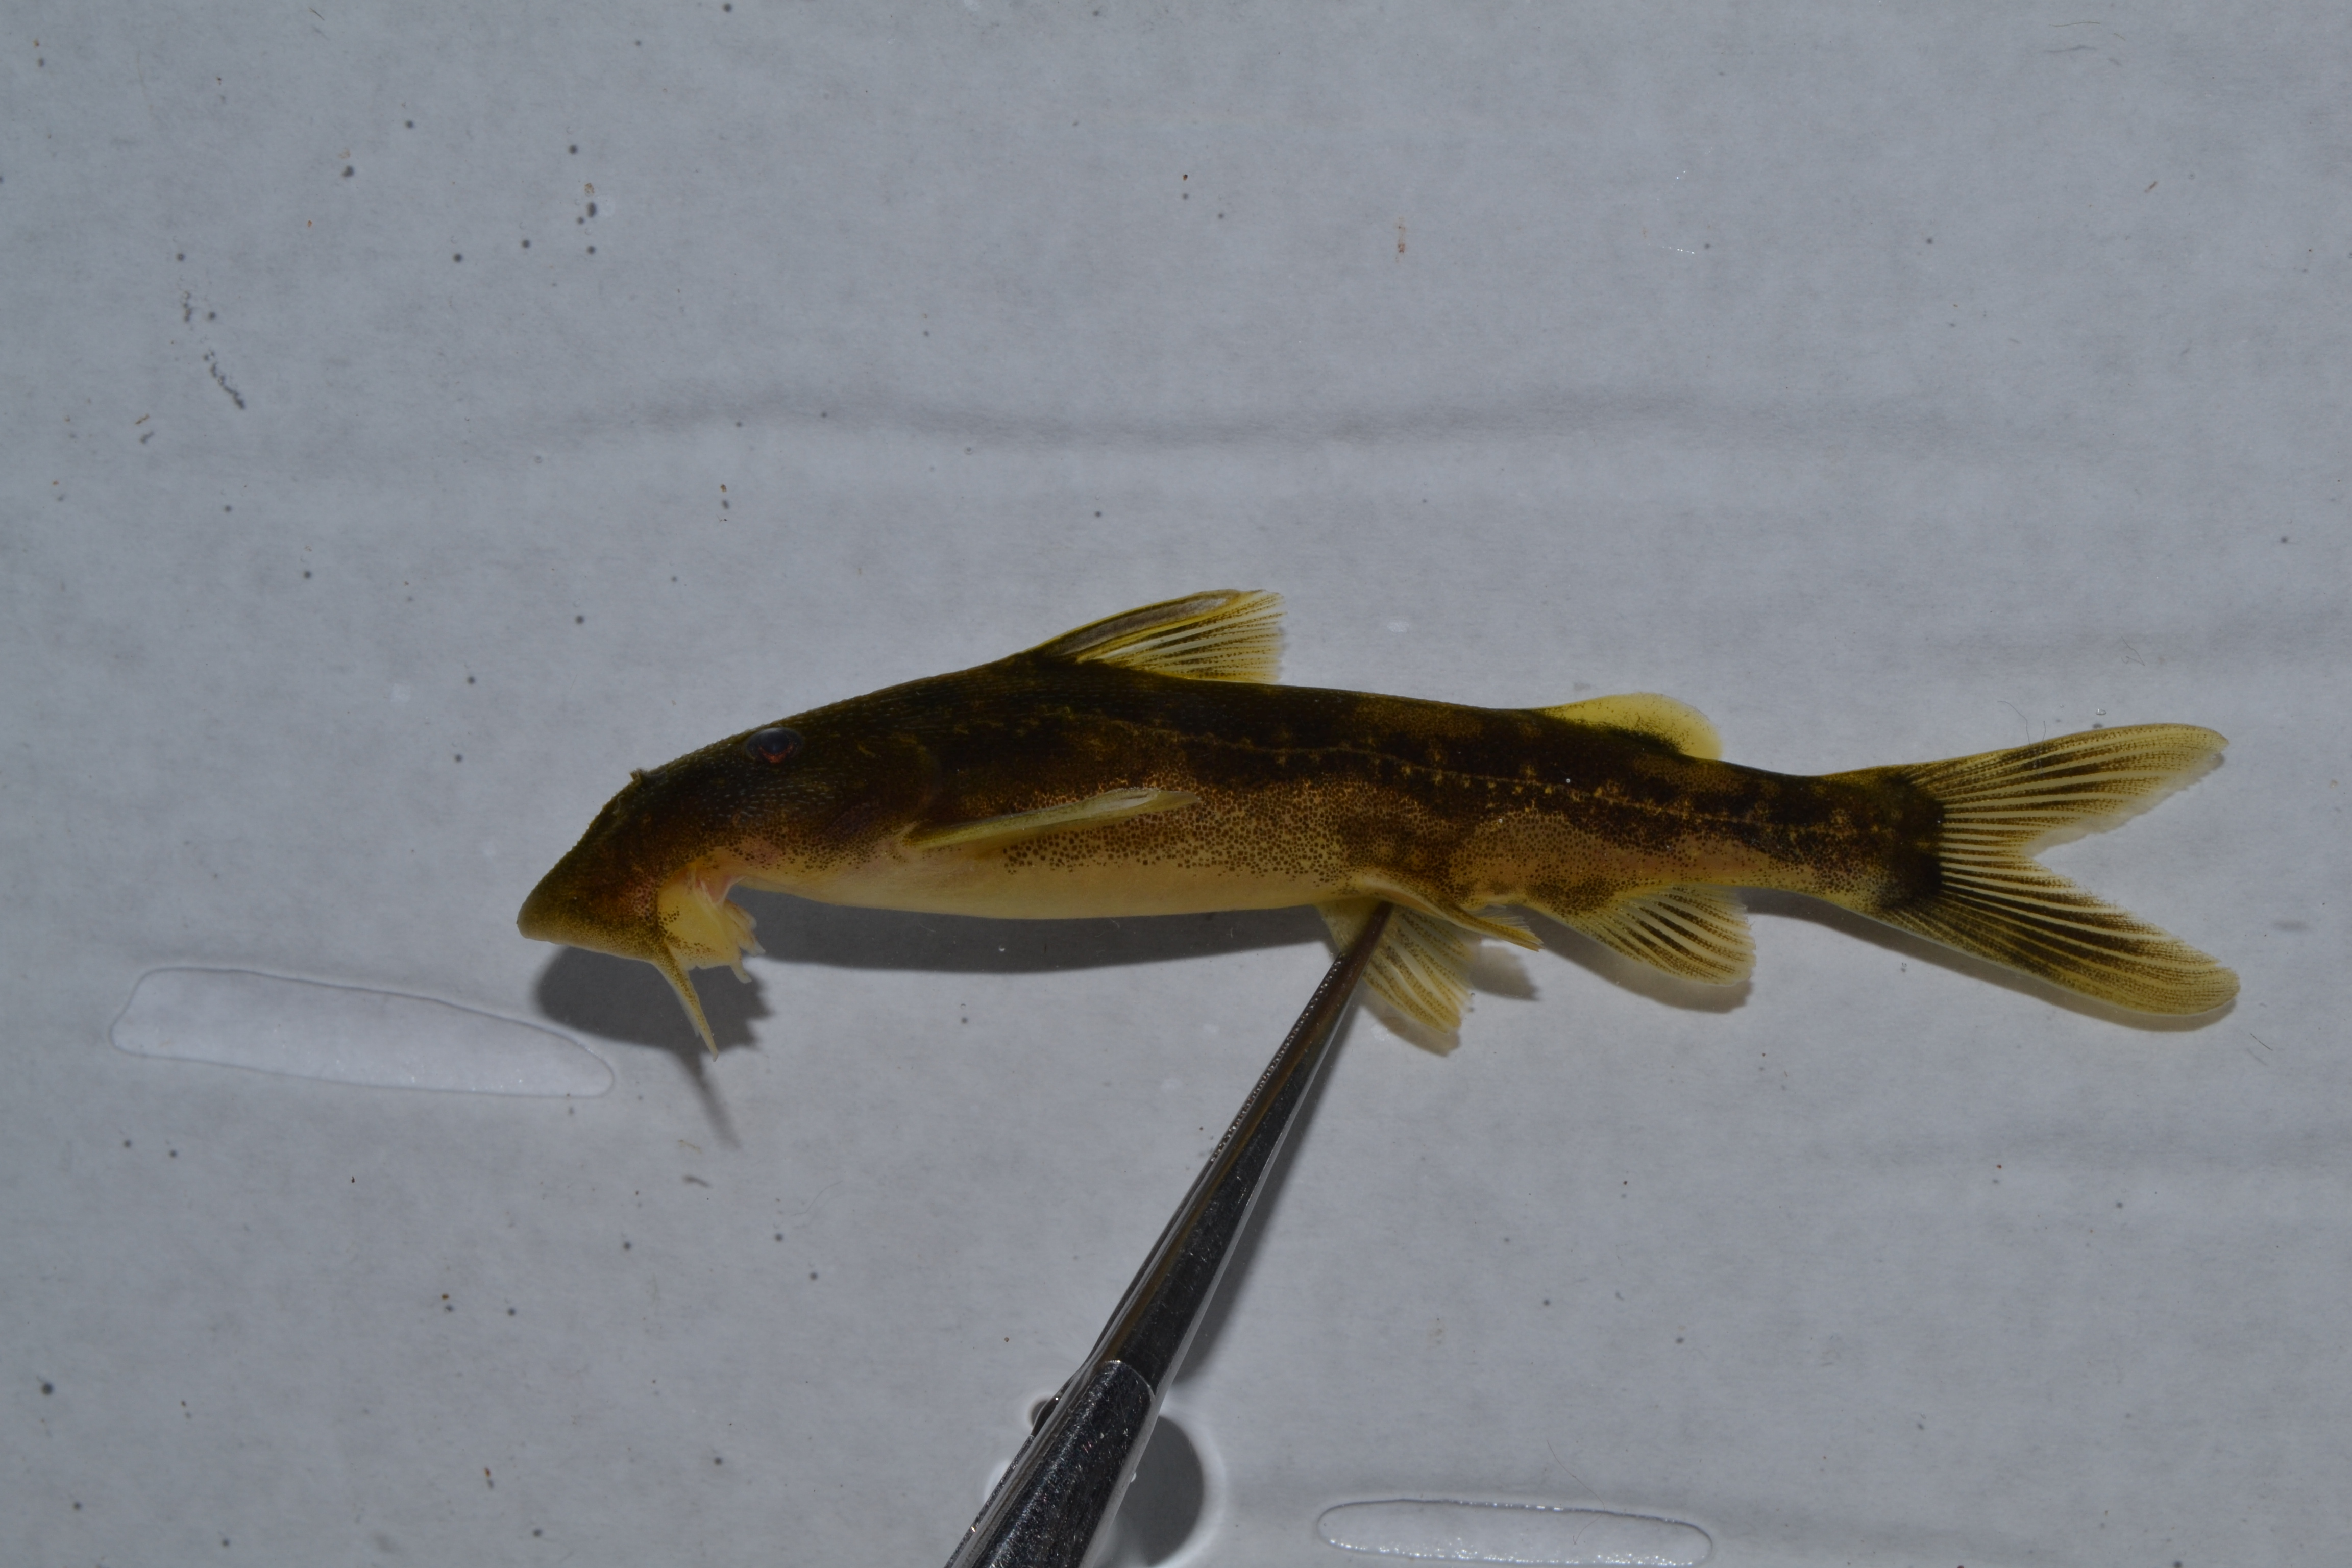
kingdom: Animalia
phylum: Chordata
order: Siluriformes
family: Mochokidae
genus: Chiloglanis
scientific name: Chiloglanis
